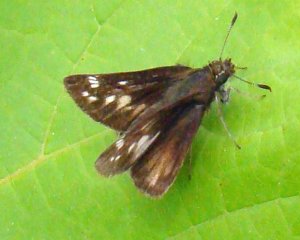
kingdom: Animalia
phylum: Arthropoda
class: Insecta
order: Lepidoptera
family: Hesperiidae
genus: Lon
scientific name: Lon hobomok
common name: Hobomok Skipper
